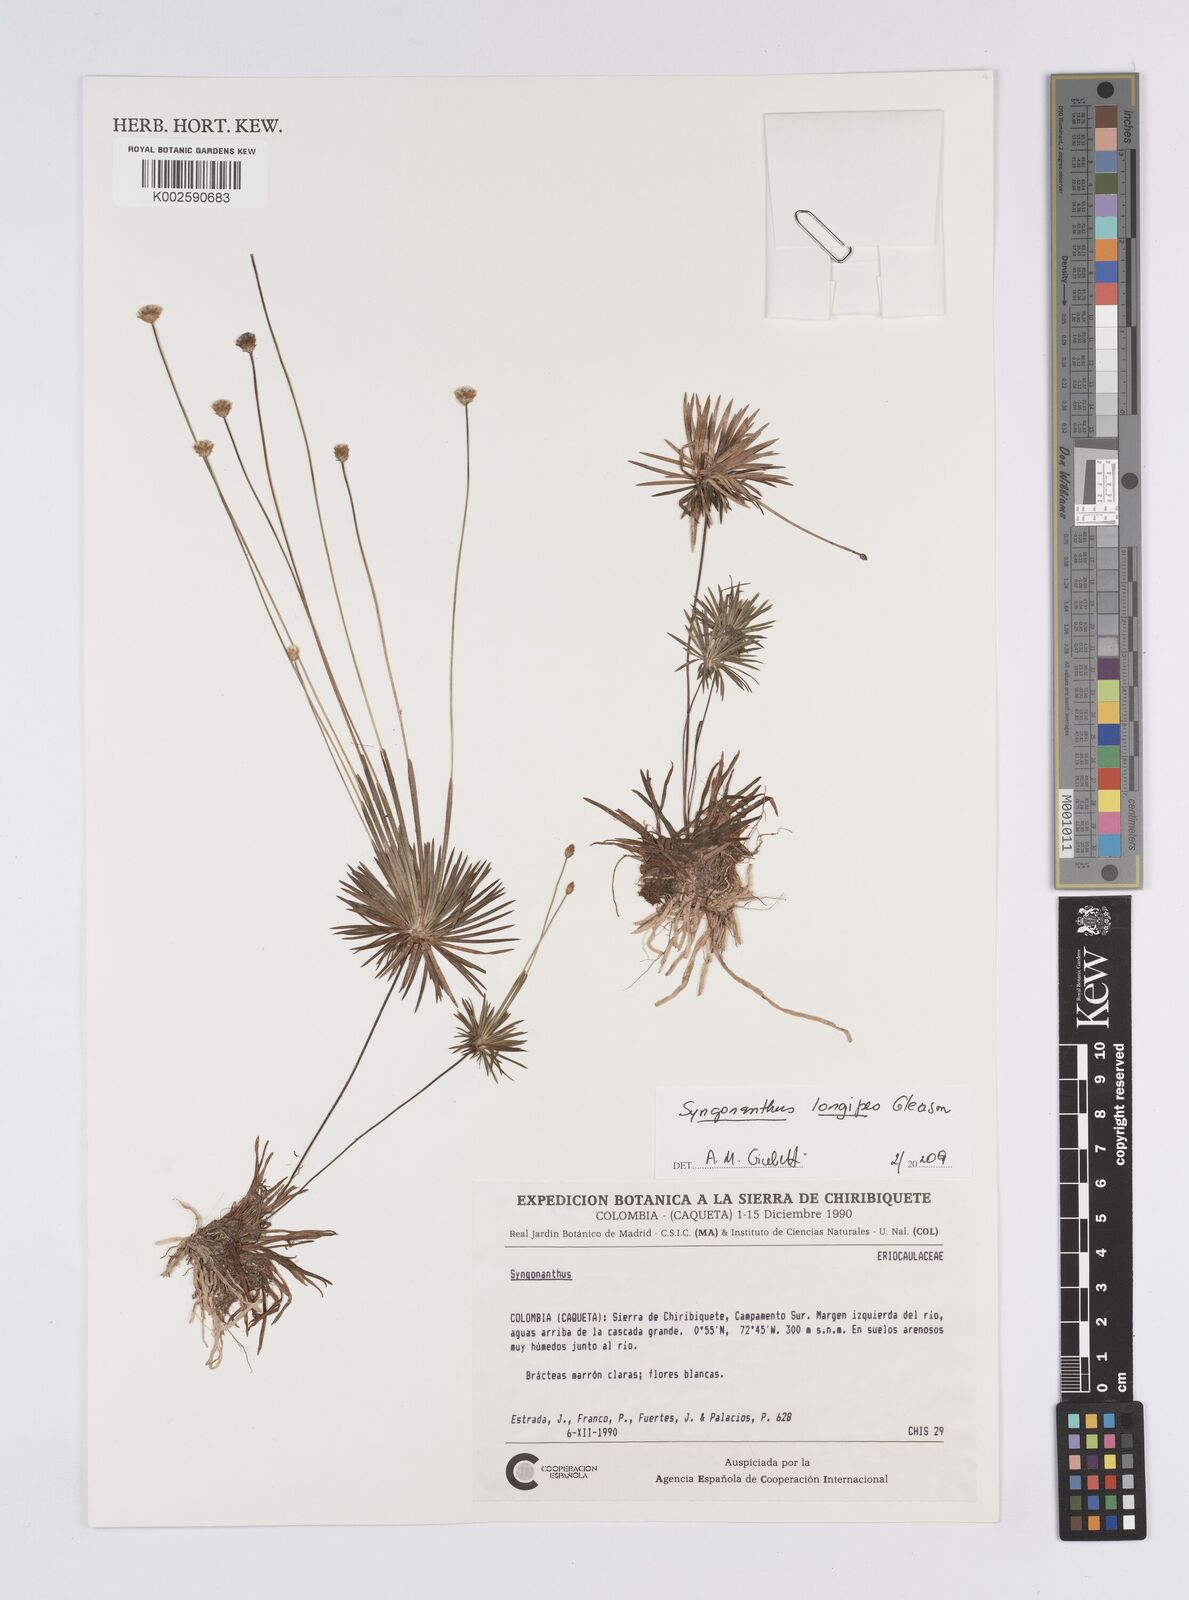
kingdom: Plantae
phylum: Tracheophyta
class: Liliopsida
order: Poales
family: Eriocaulaceae
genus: Syngonanthus
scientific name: Syngonanthus longipes
